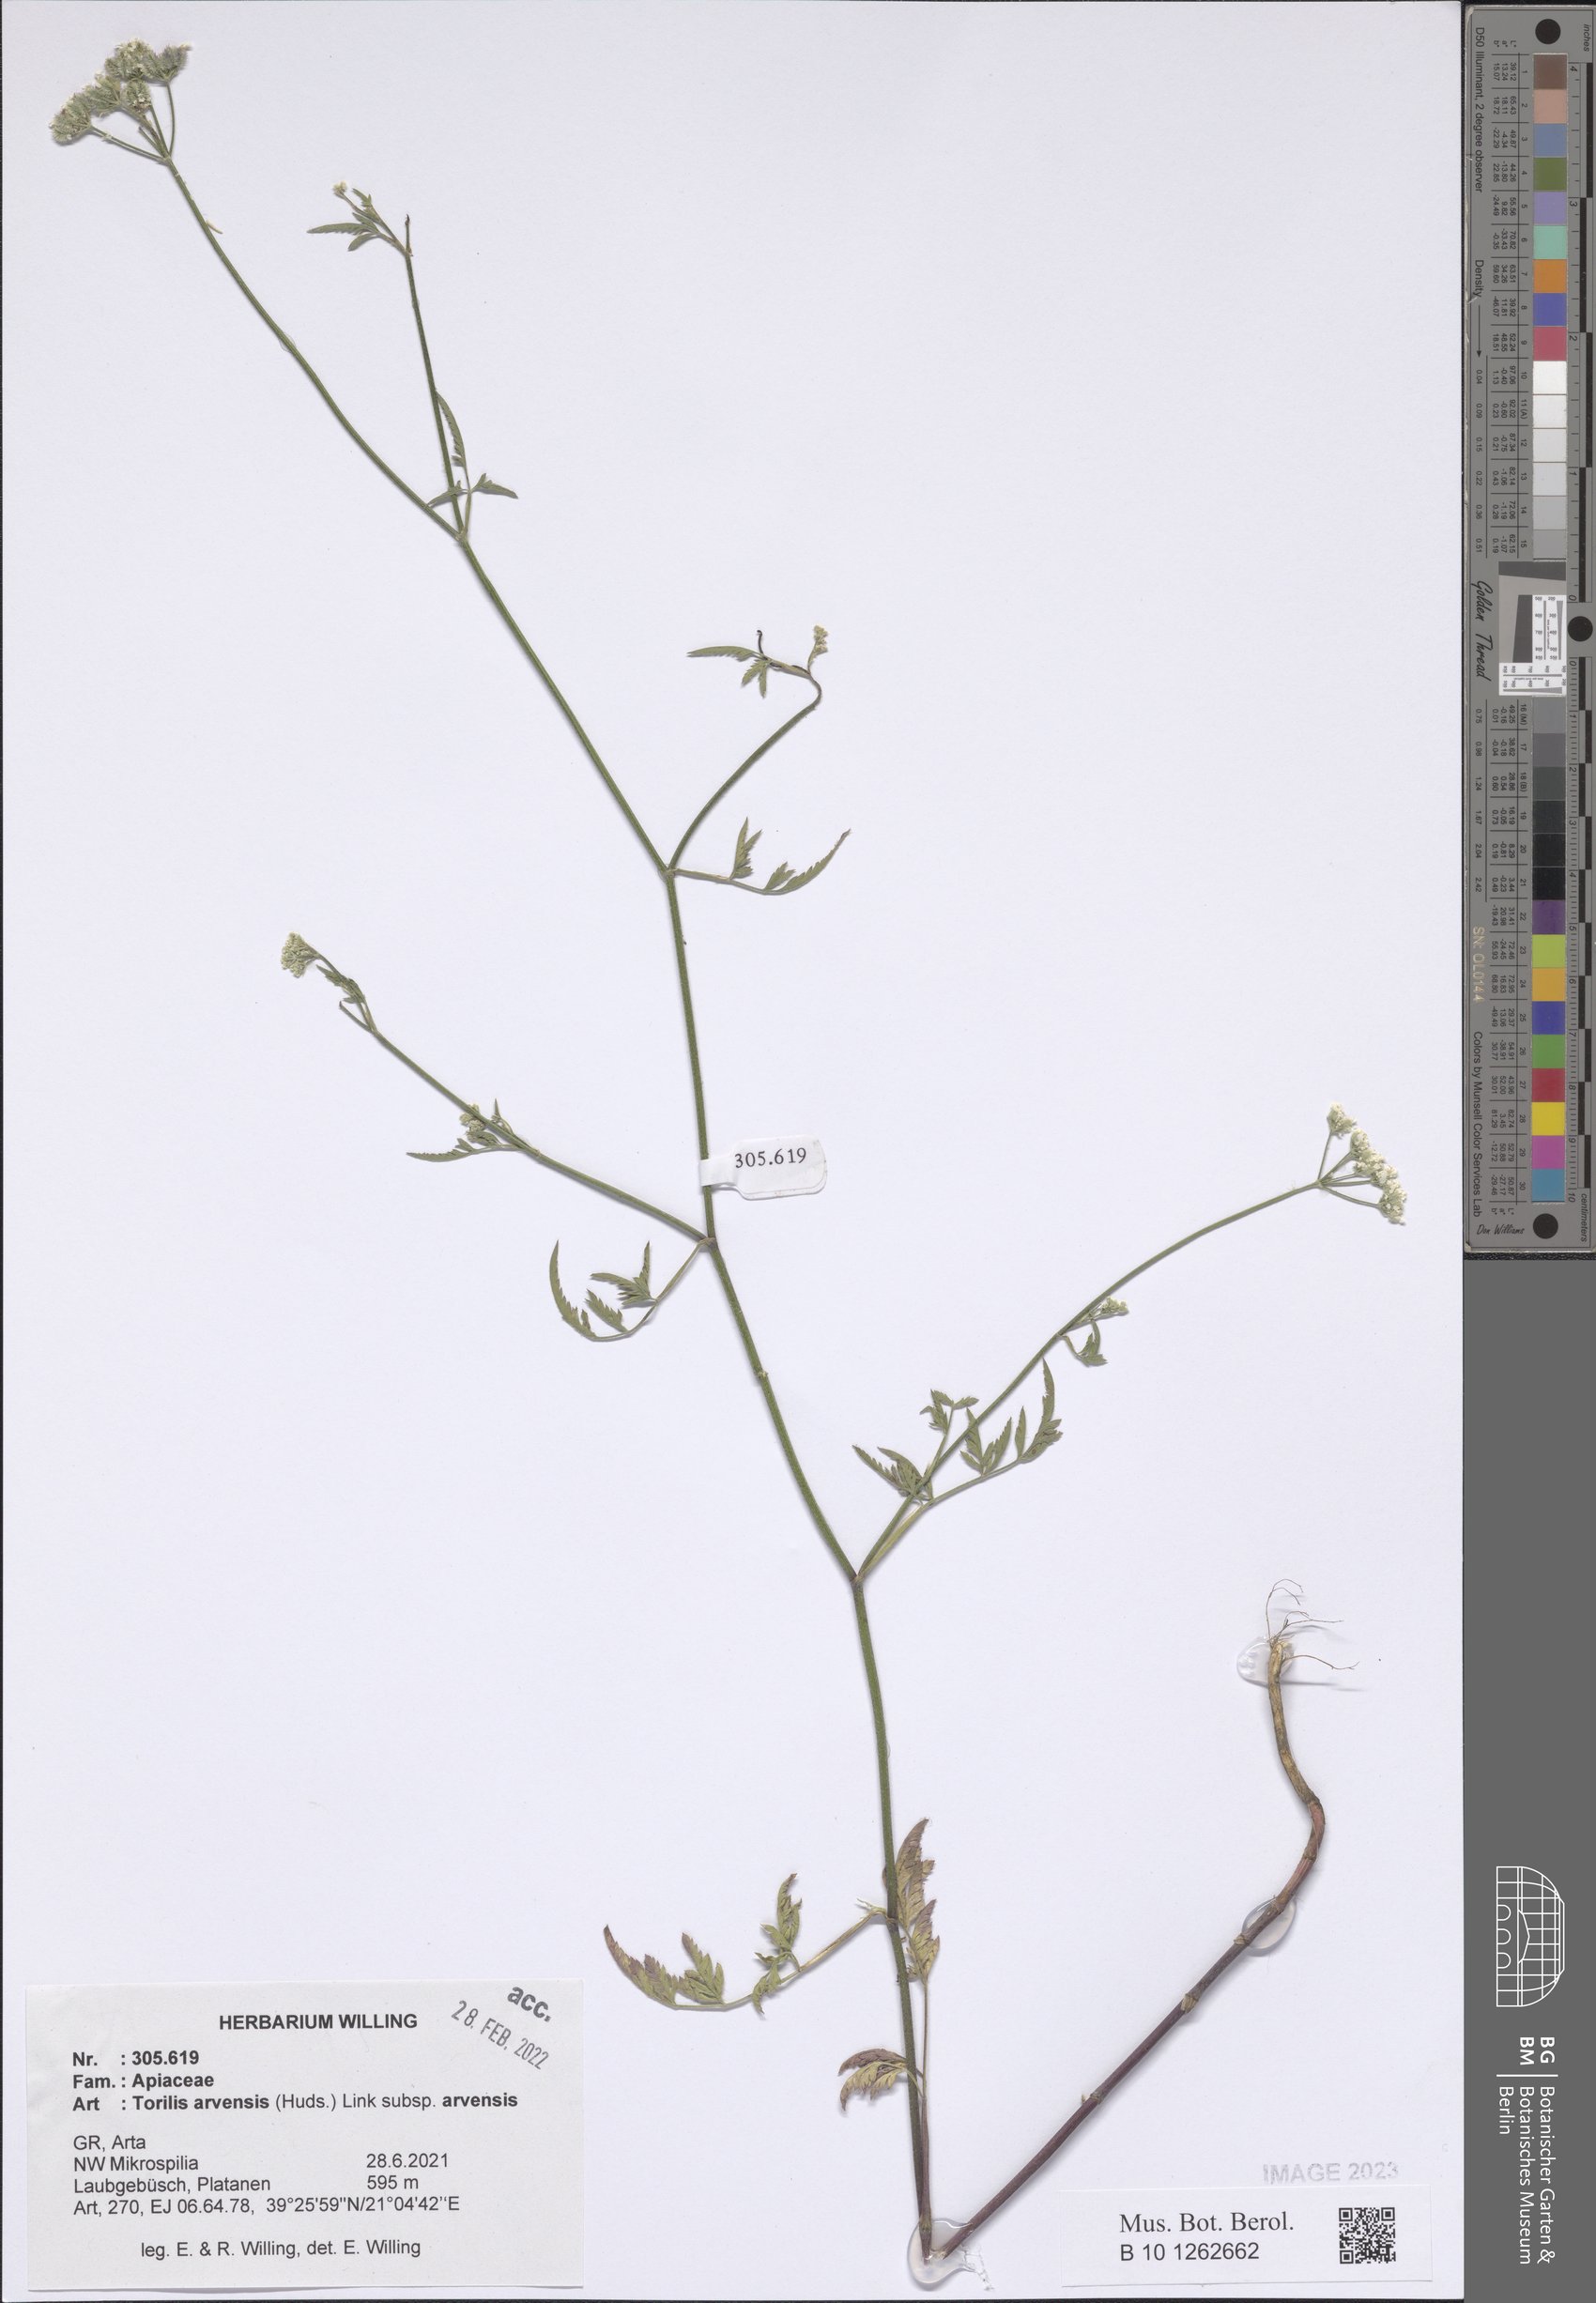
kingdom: Plantae
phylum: Tracheophyta
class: Magnoliopsida
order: Apiales
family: Apiaceae
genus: Torilis
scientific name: Torilis arvensis
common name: Spreading hedge-parsley
